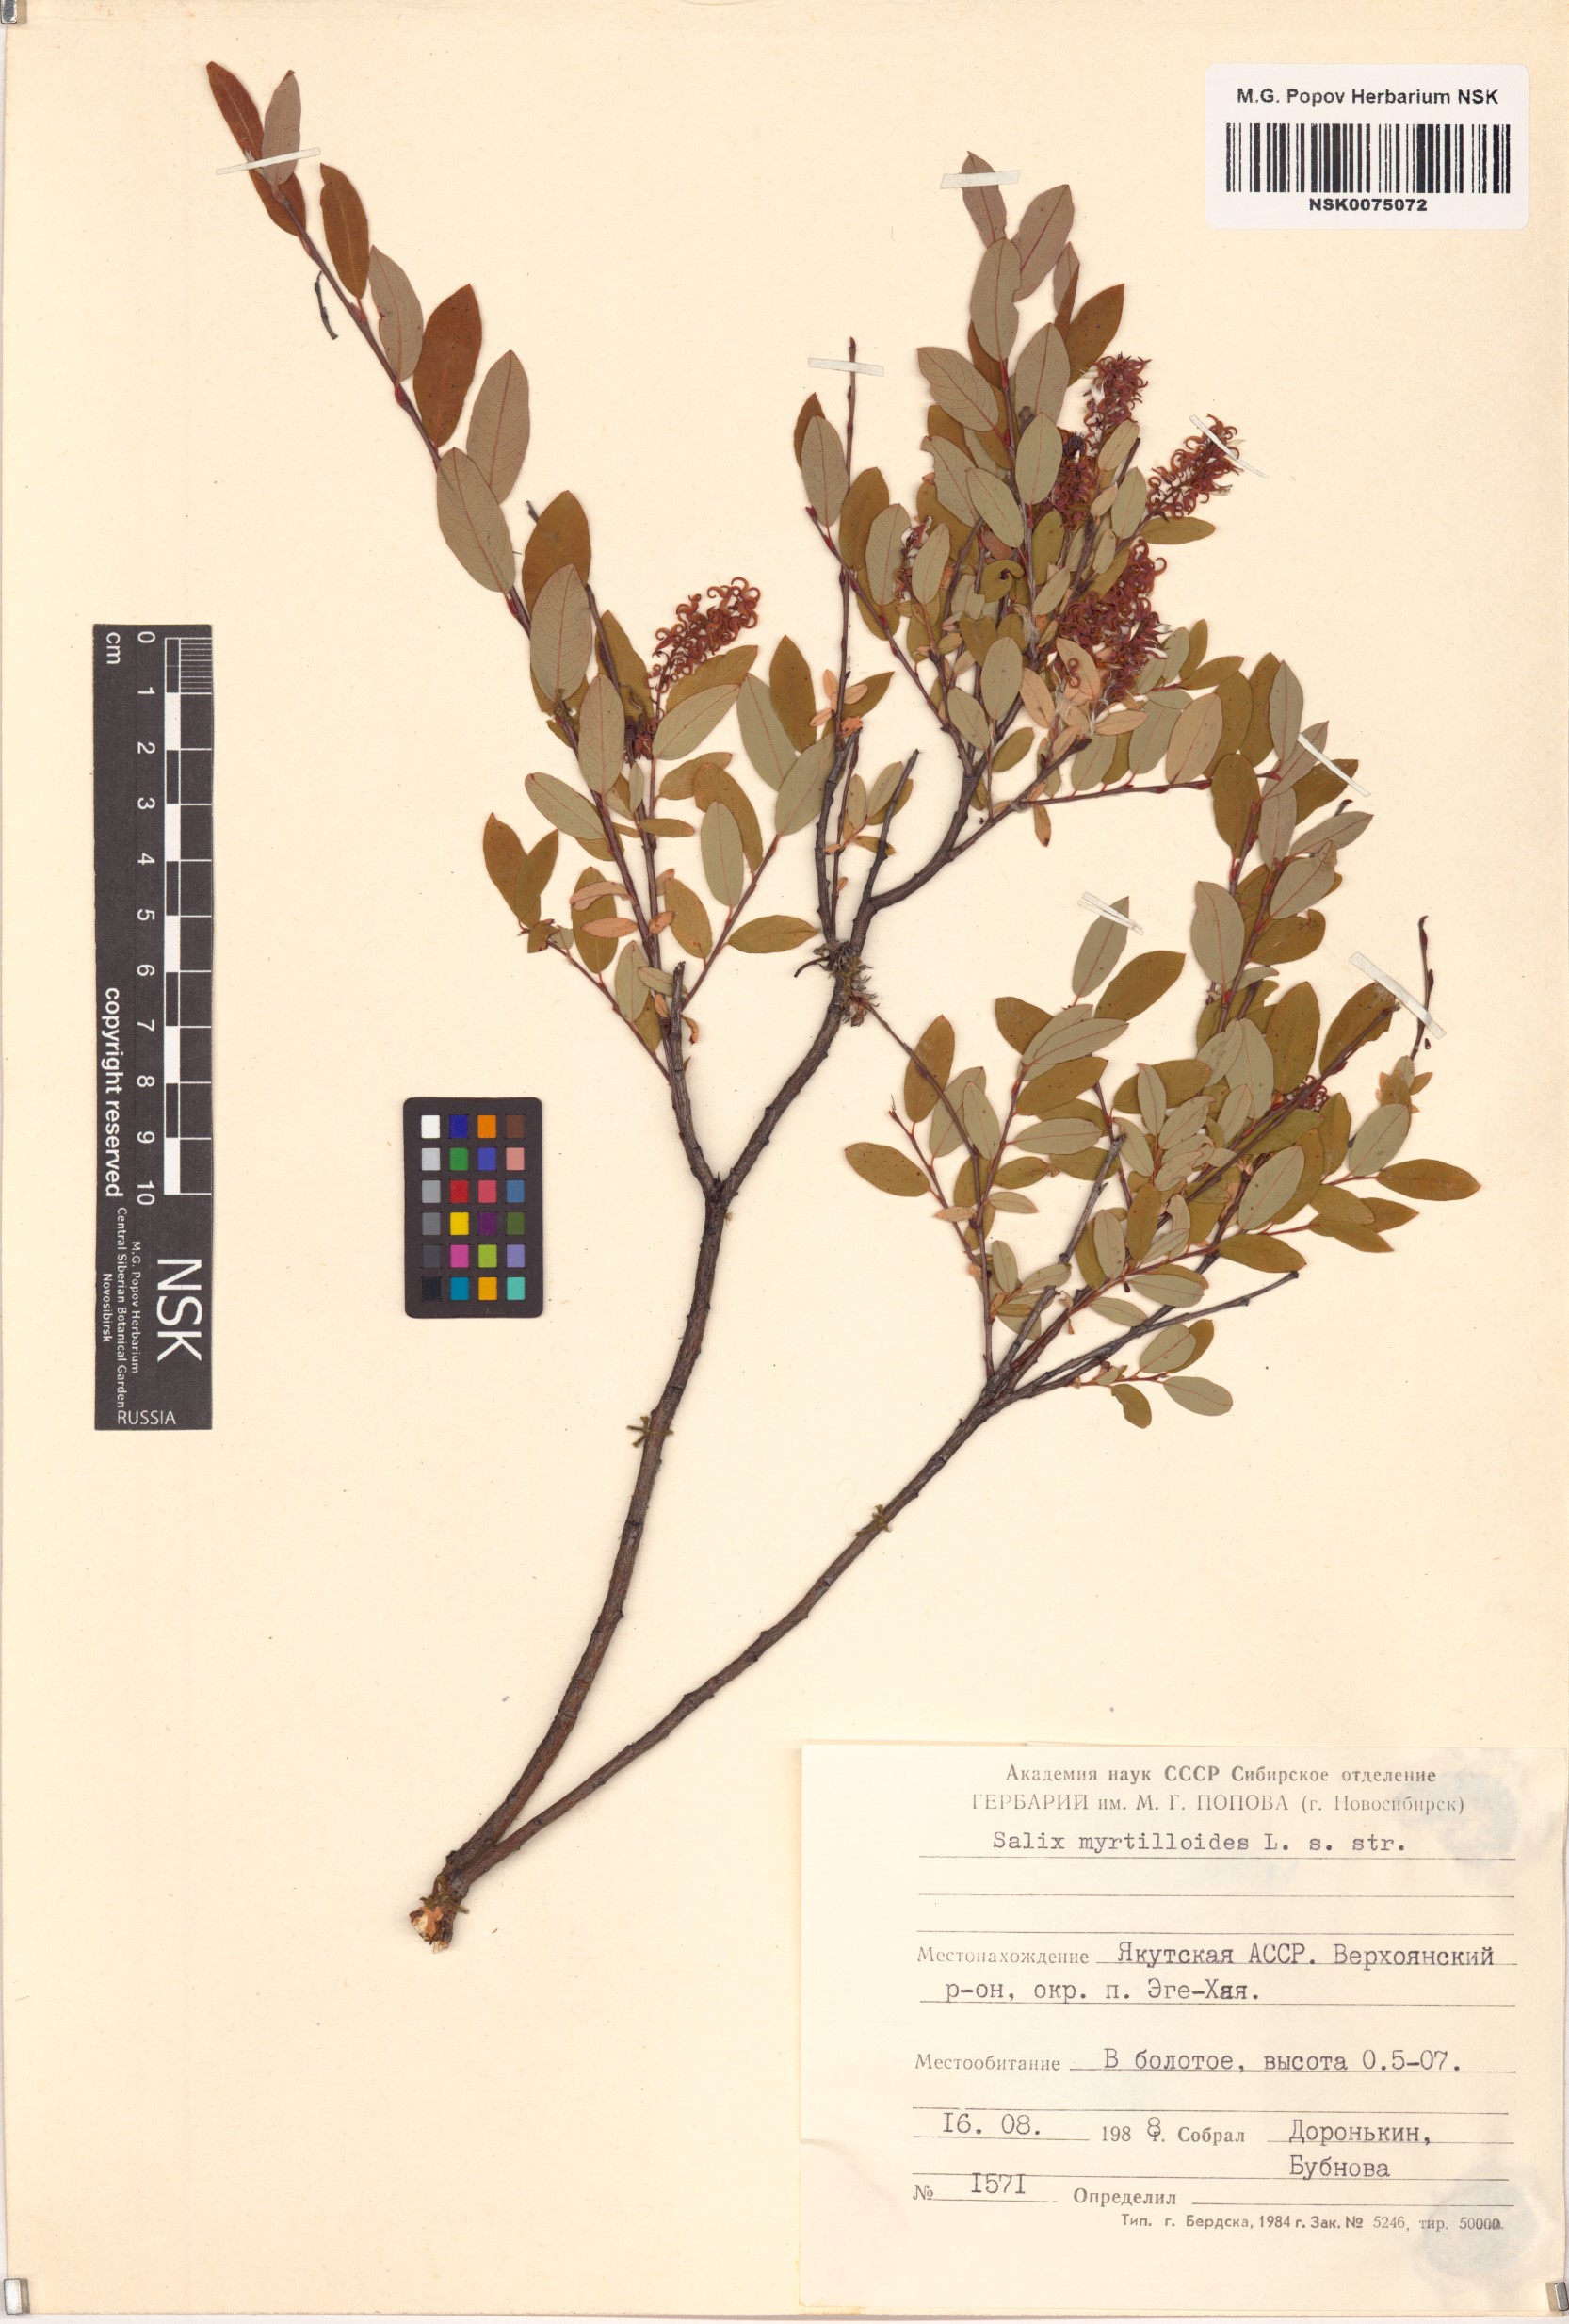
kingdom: Plantae
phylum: Tracheophyta
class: Magnoliopsida
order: Malpighiales
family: Salicaceae
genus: Salix
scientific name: Salix myrtilloides
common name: Myrtle-leaved willow
